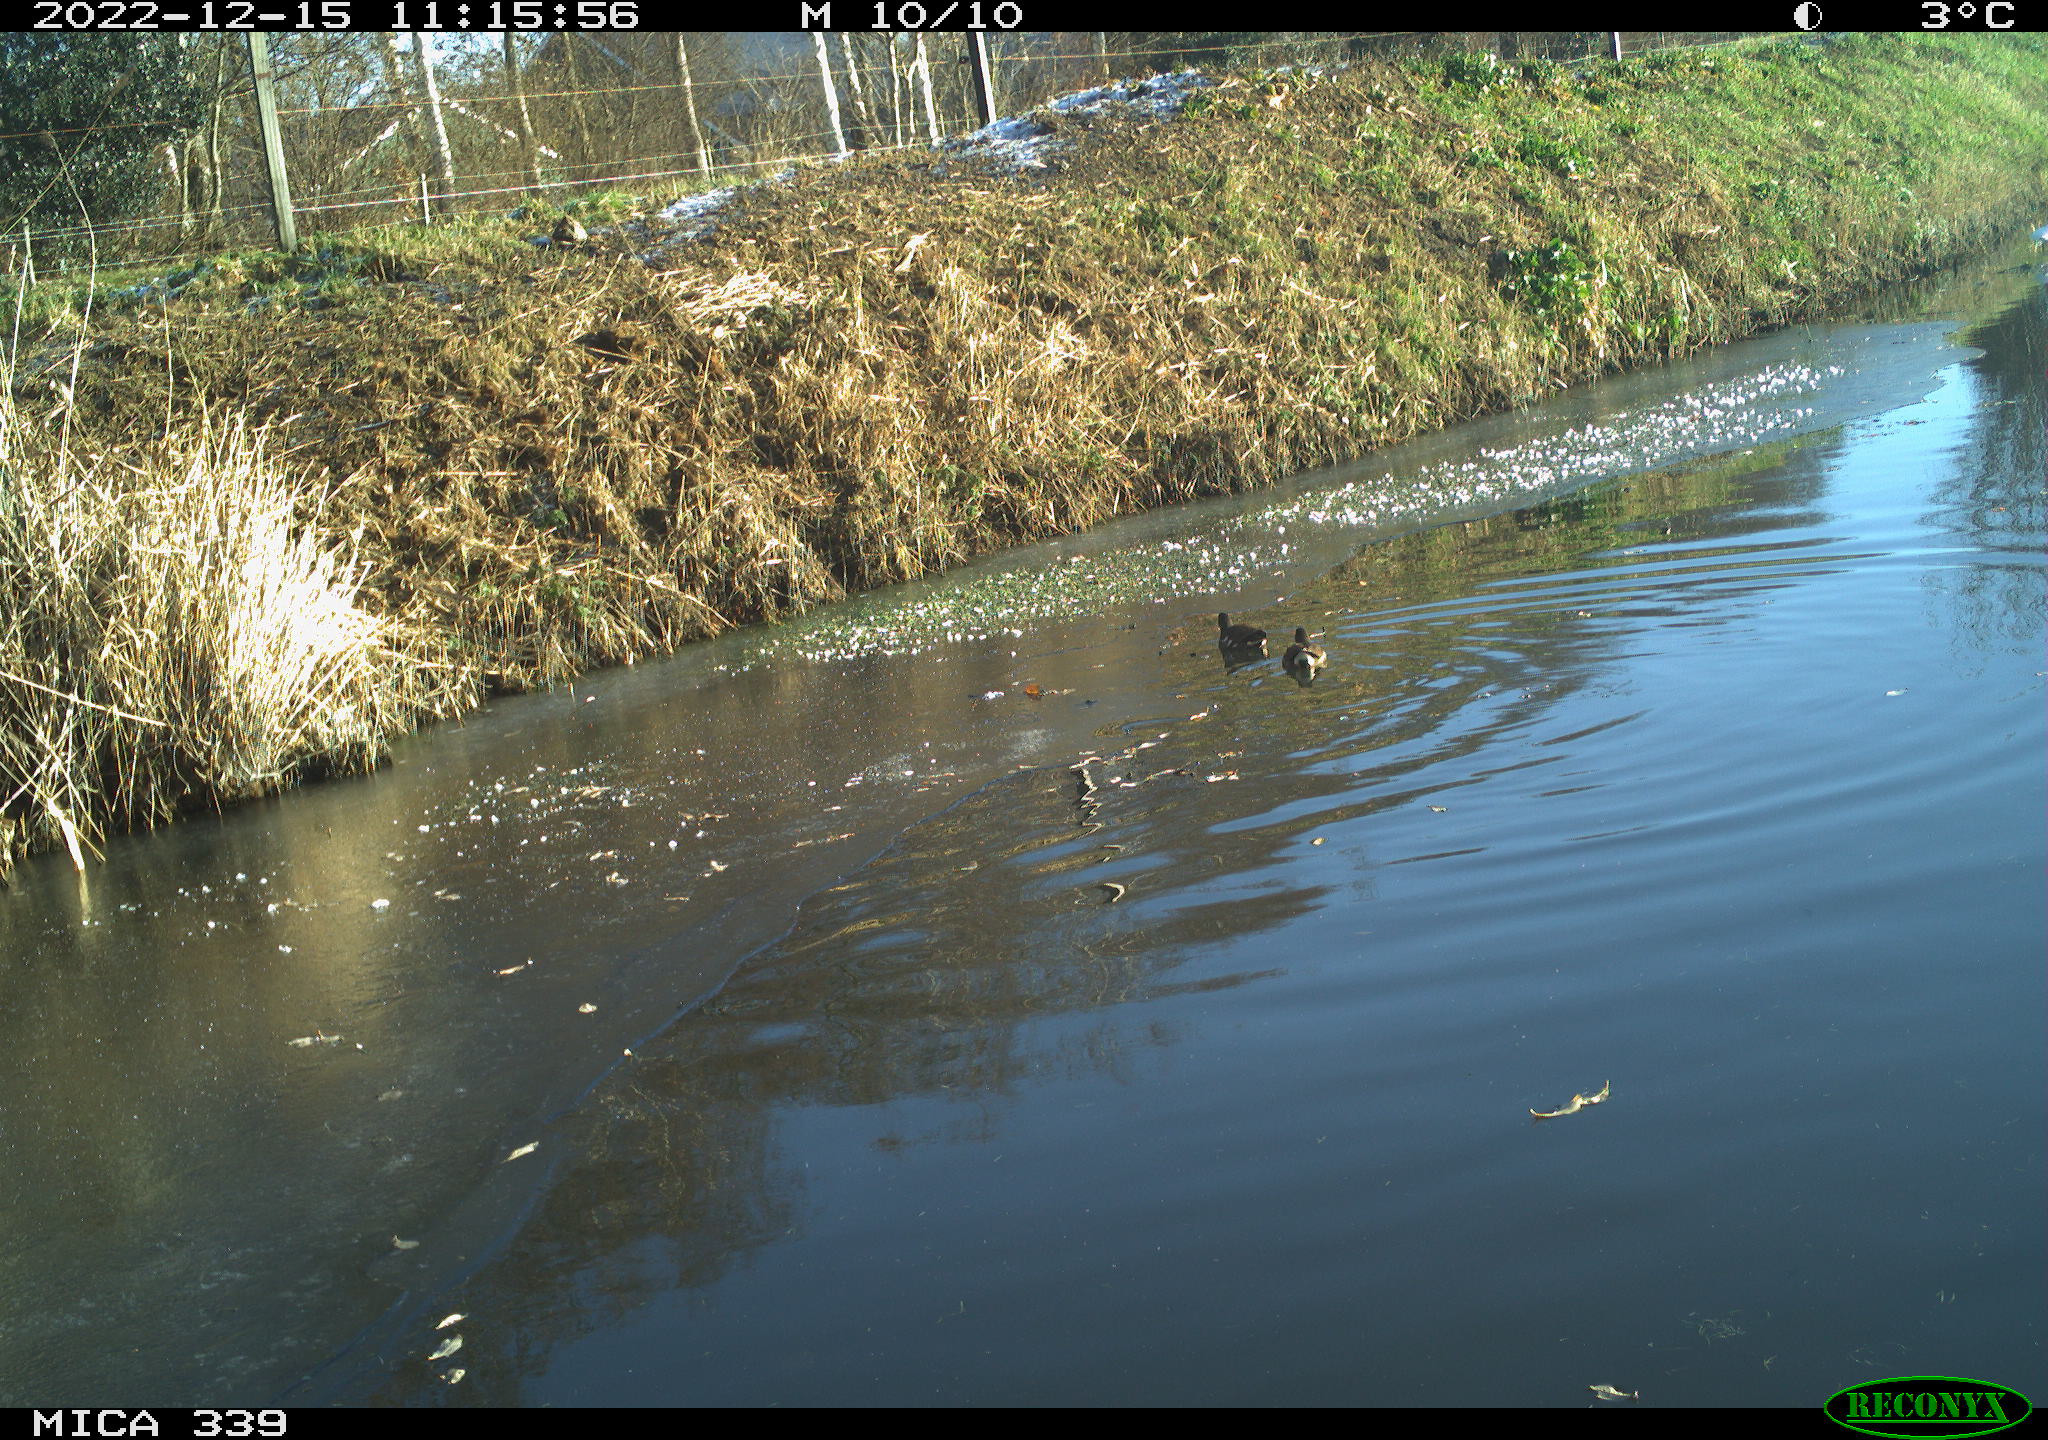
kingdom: Animalia
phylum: Chordata
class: Aves
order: Anseriformes
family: Anatidae
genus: Anas
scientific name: Anas
